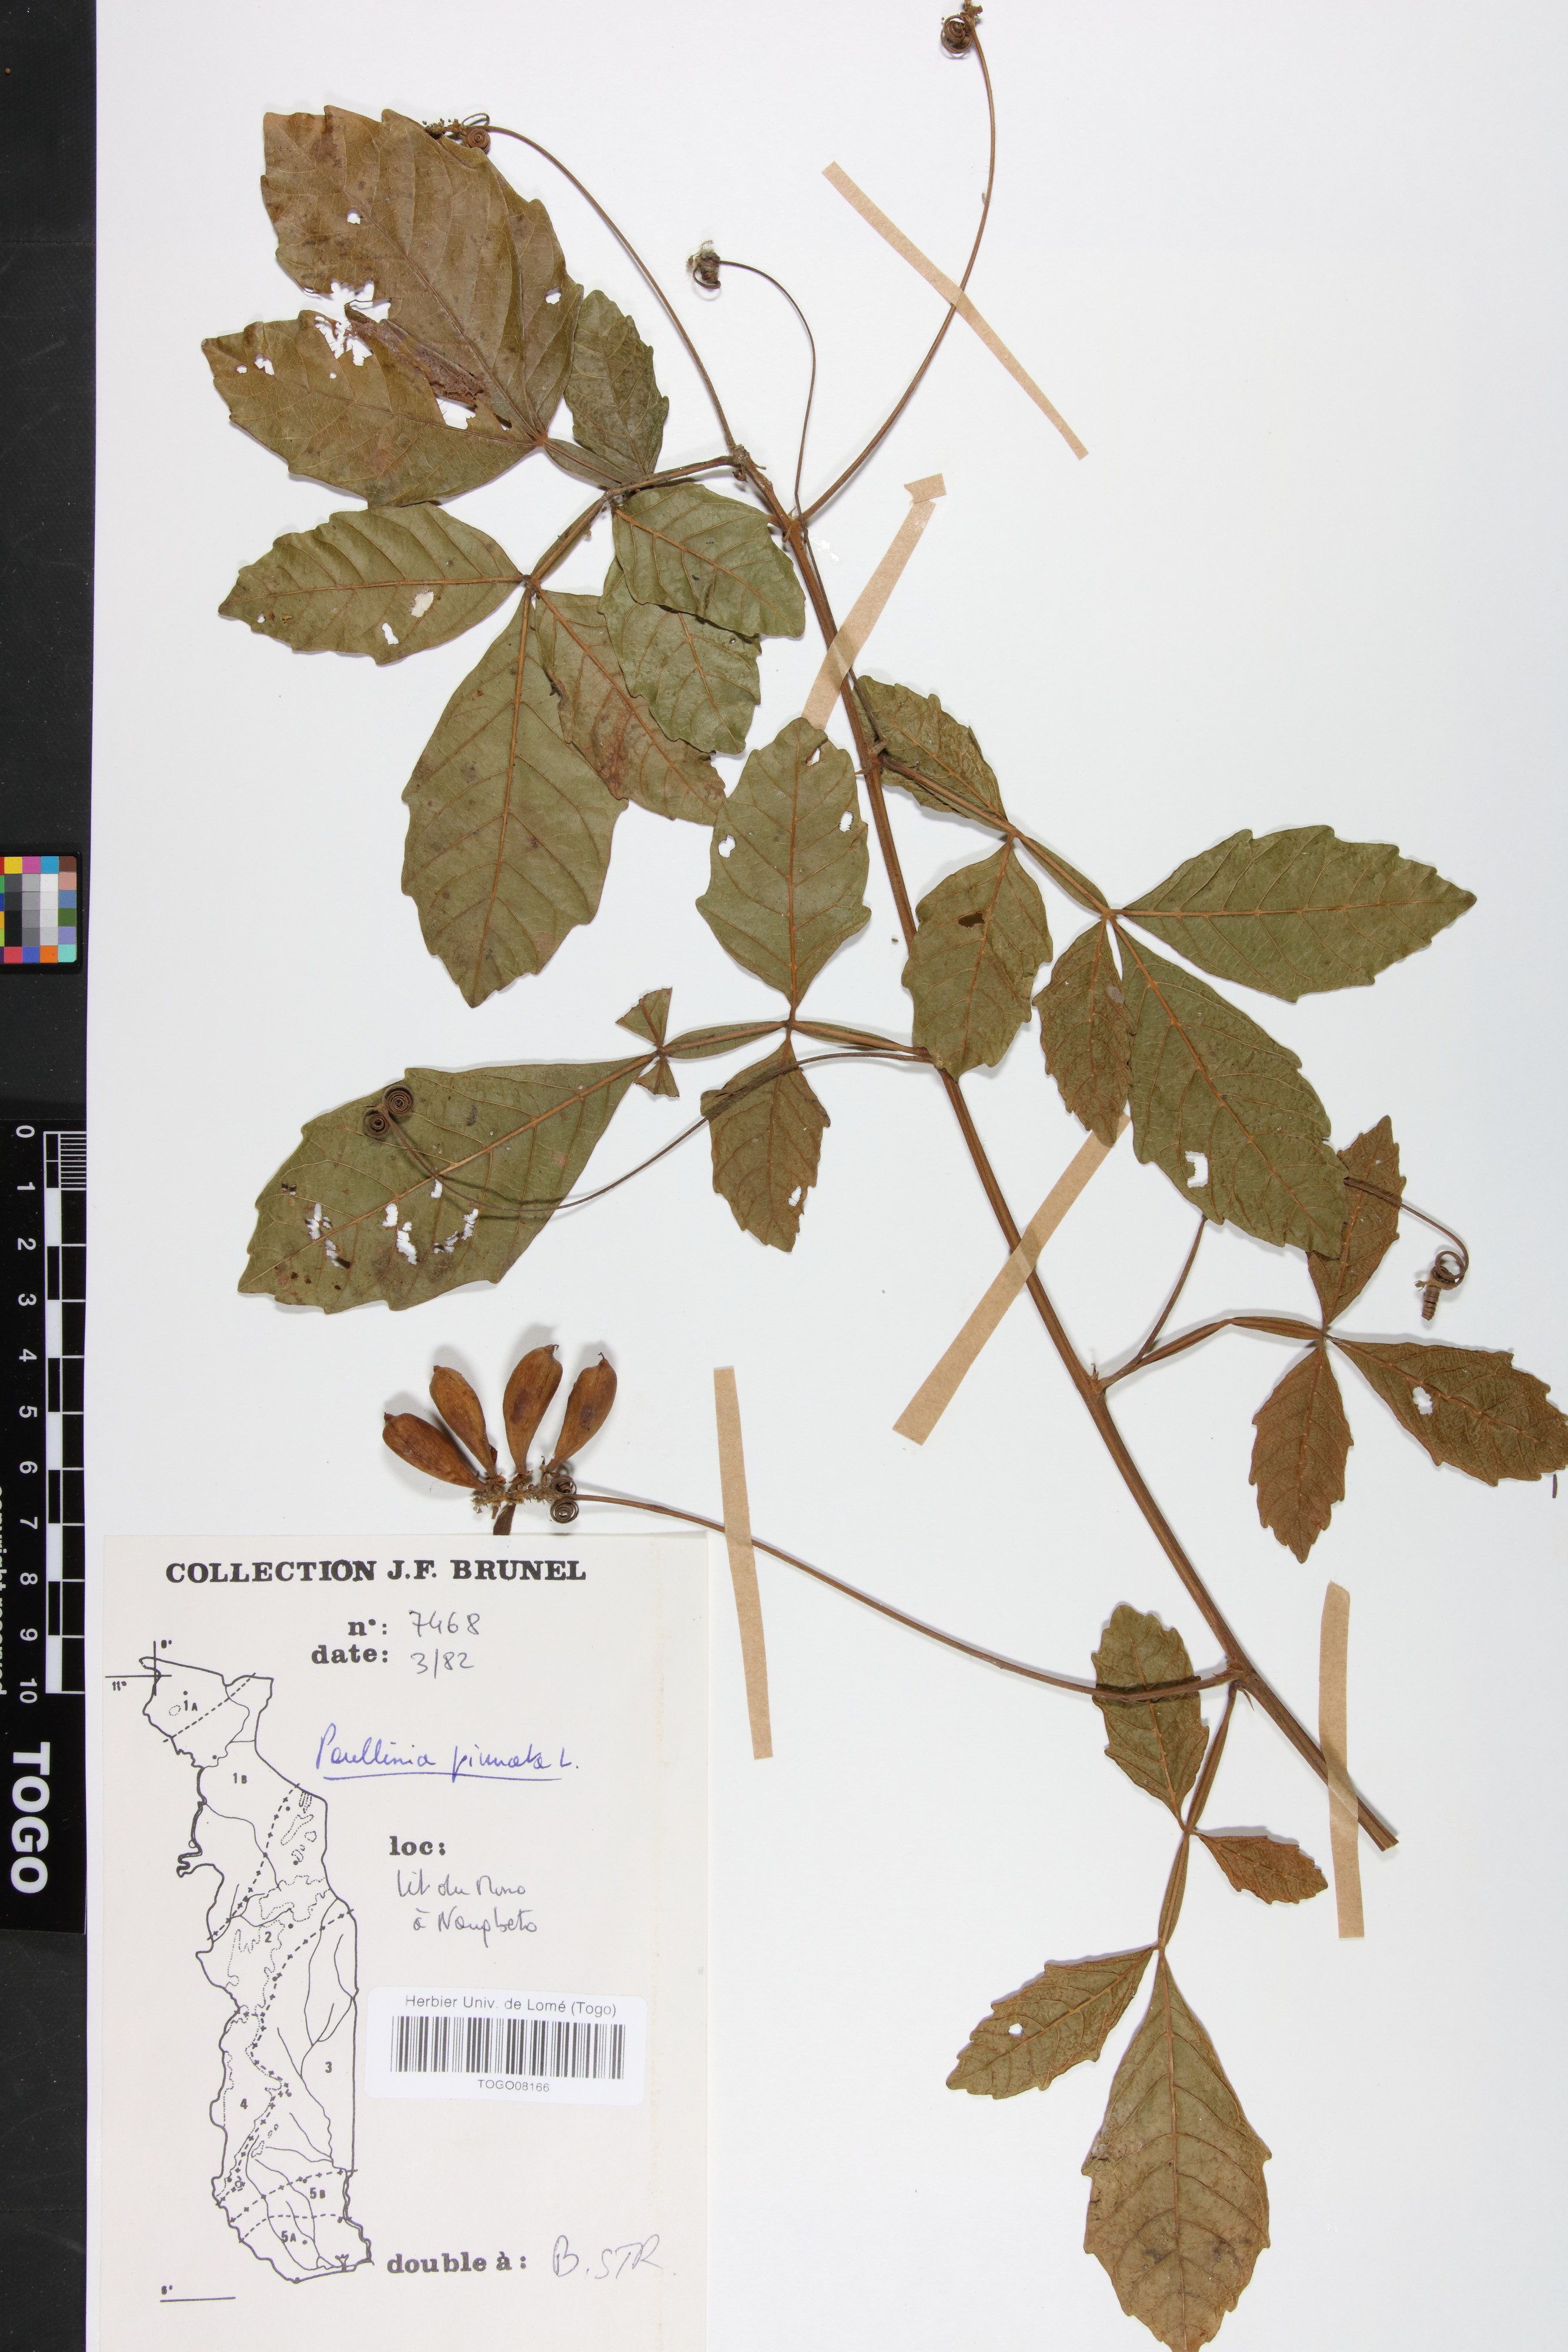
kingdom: Plantae
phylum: Tracheophyta
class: Magnoliopsida
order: Sapindales
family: Sapindaceae
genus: Paullinia
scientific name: Paullinia pinnata
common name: Barbasco
